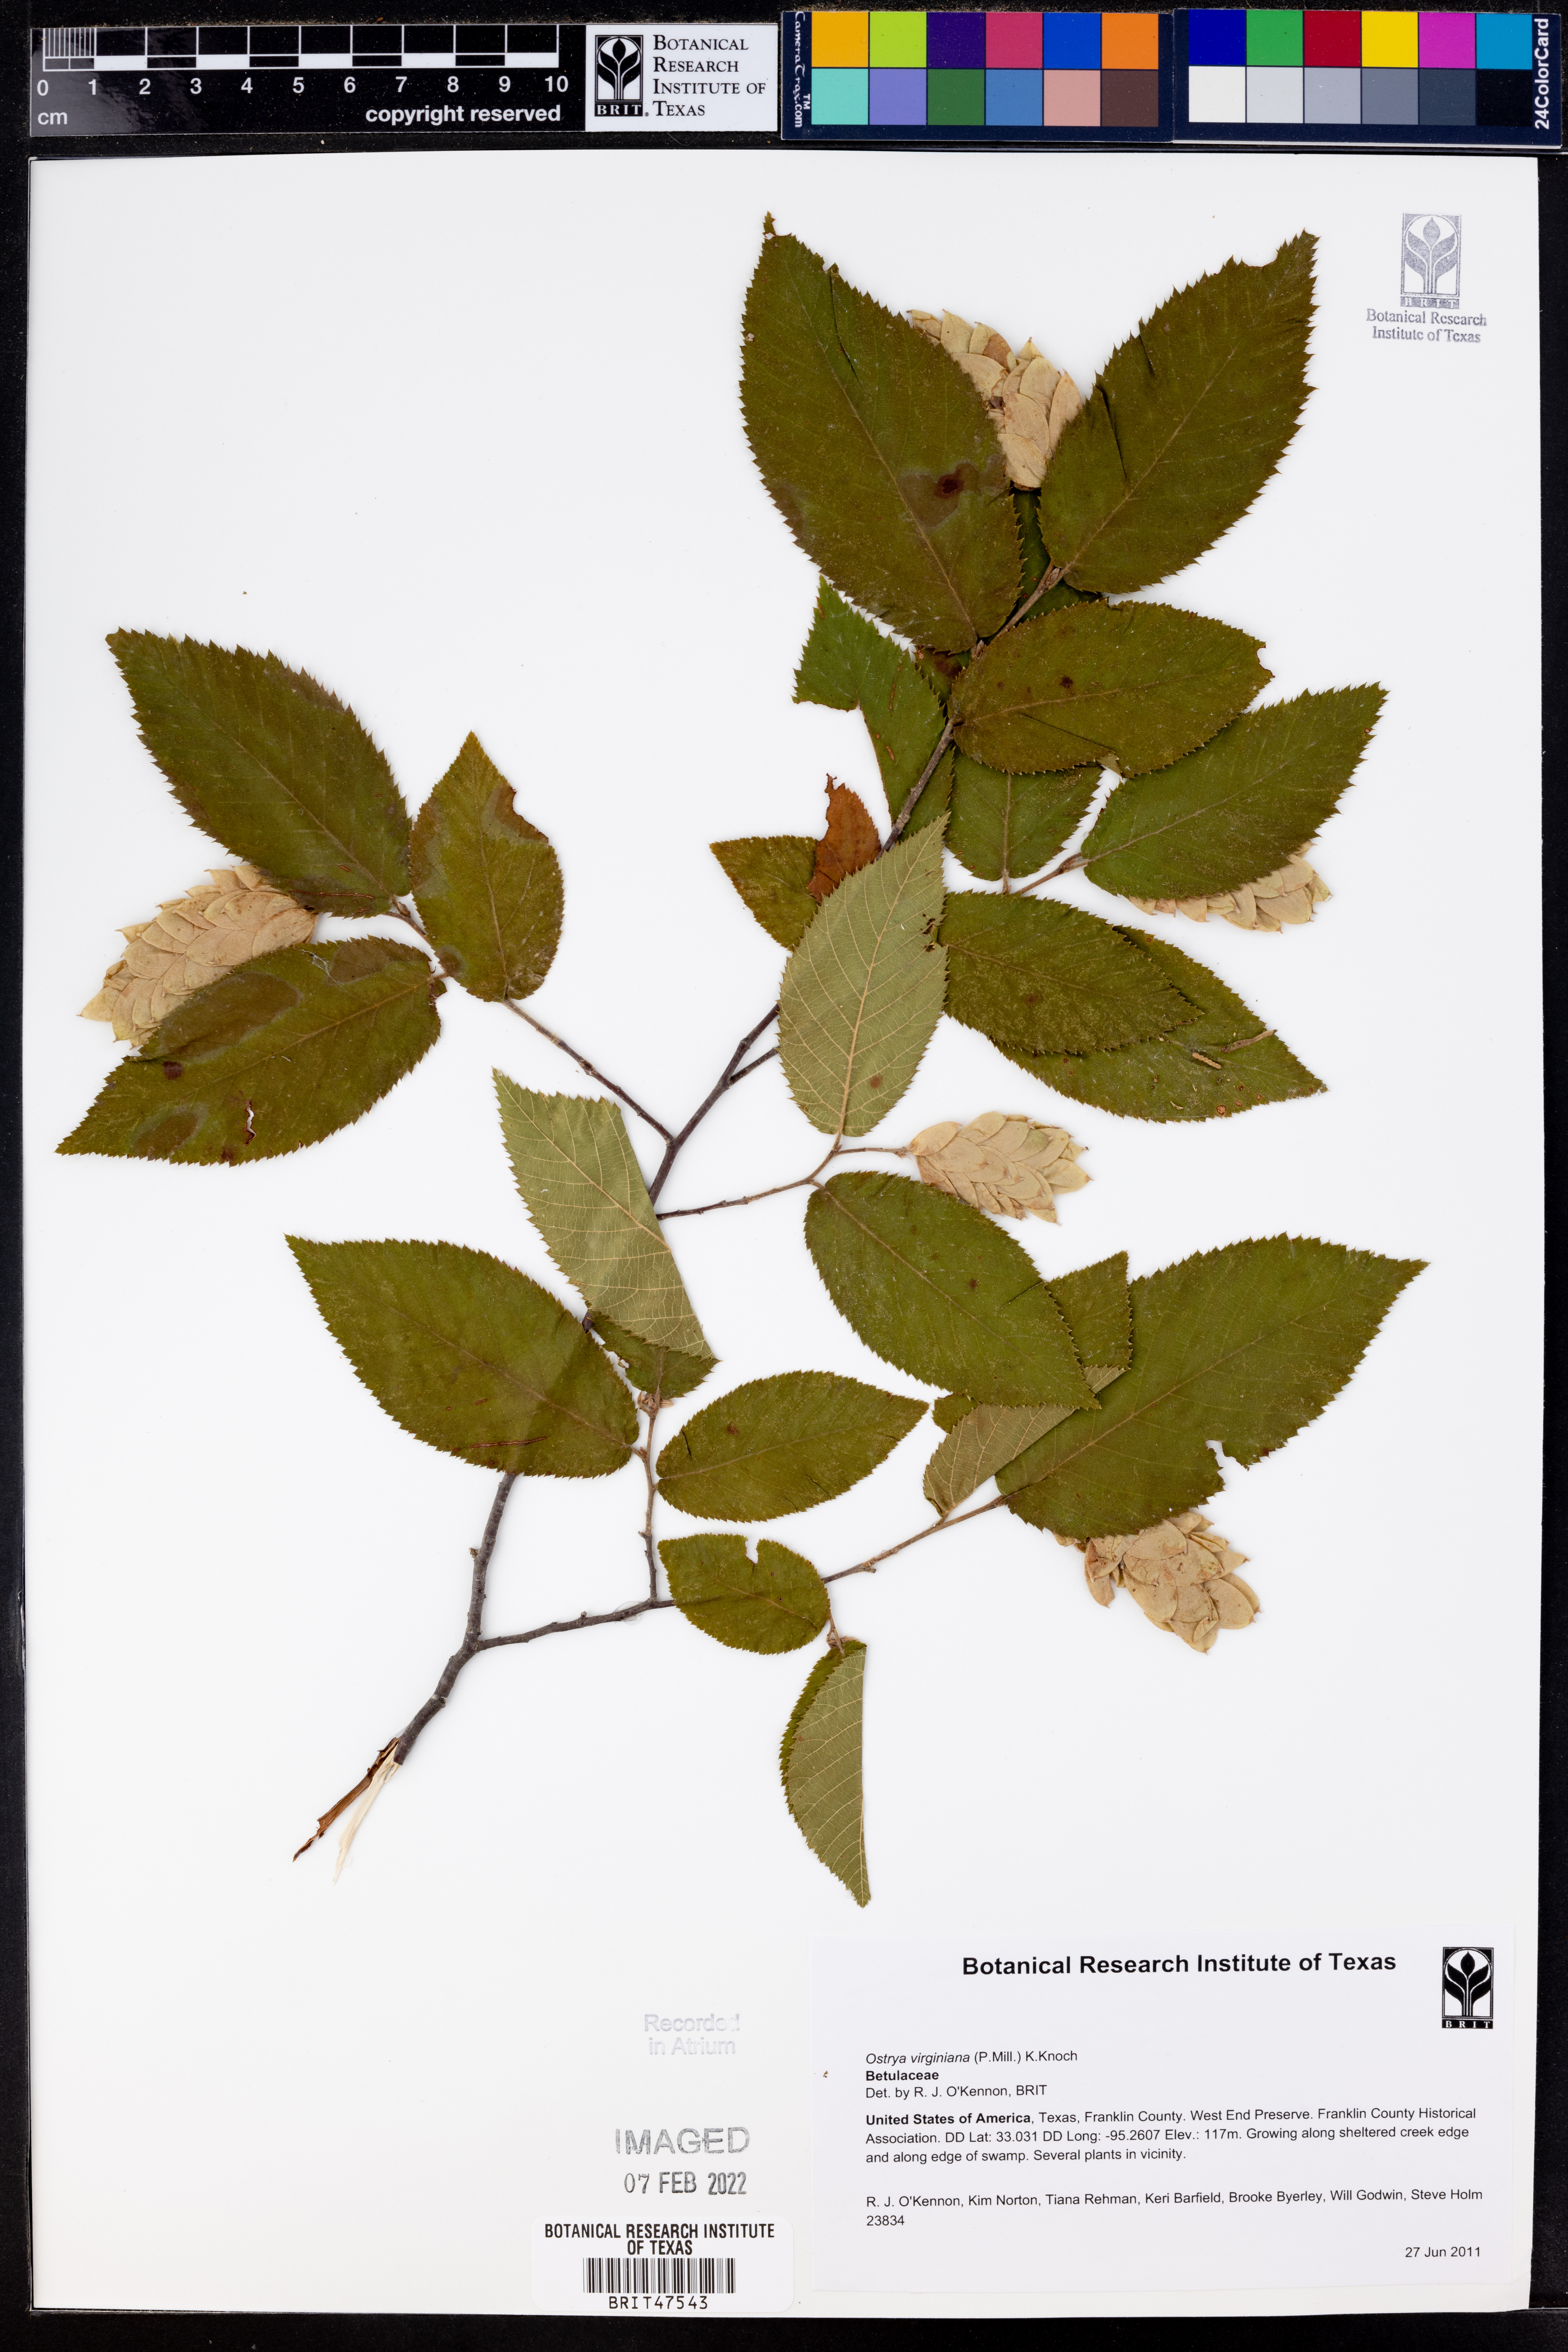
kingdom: Plantae
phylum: Tracheophyta
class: Magnoliopsida
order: Fagales
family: Betulaceae
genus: Ostrya
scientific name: Ostrya virginiana
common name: Ironwood
